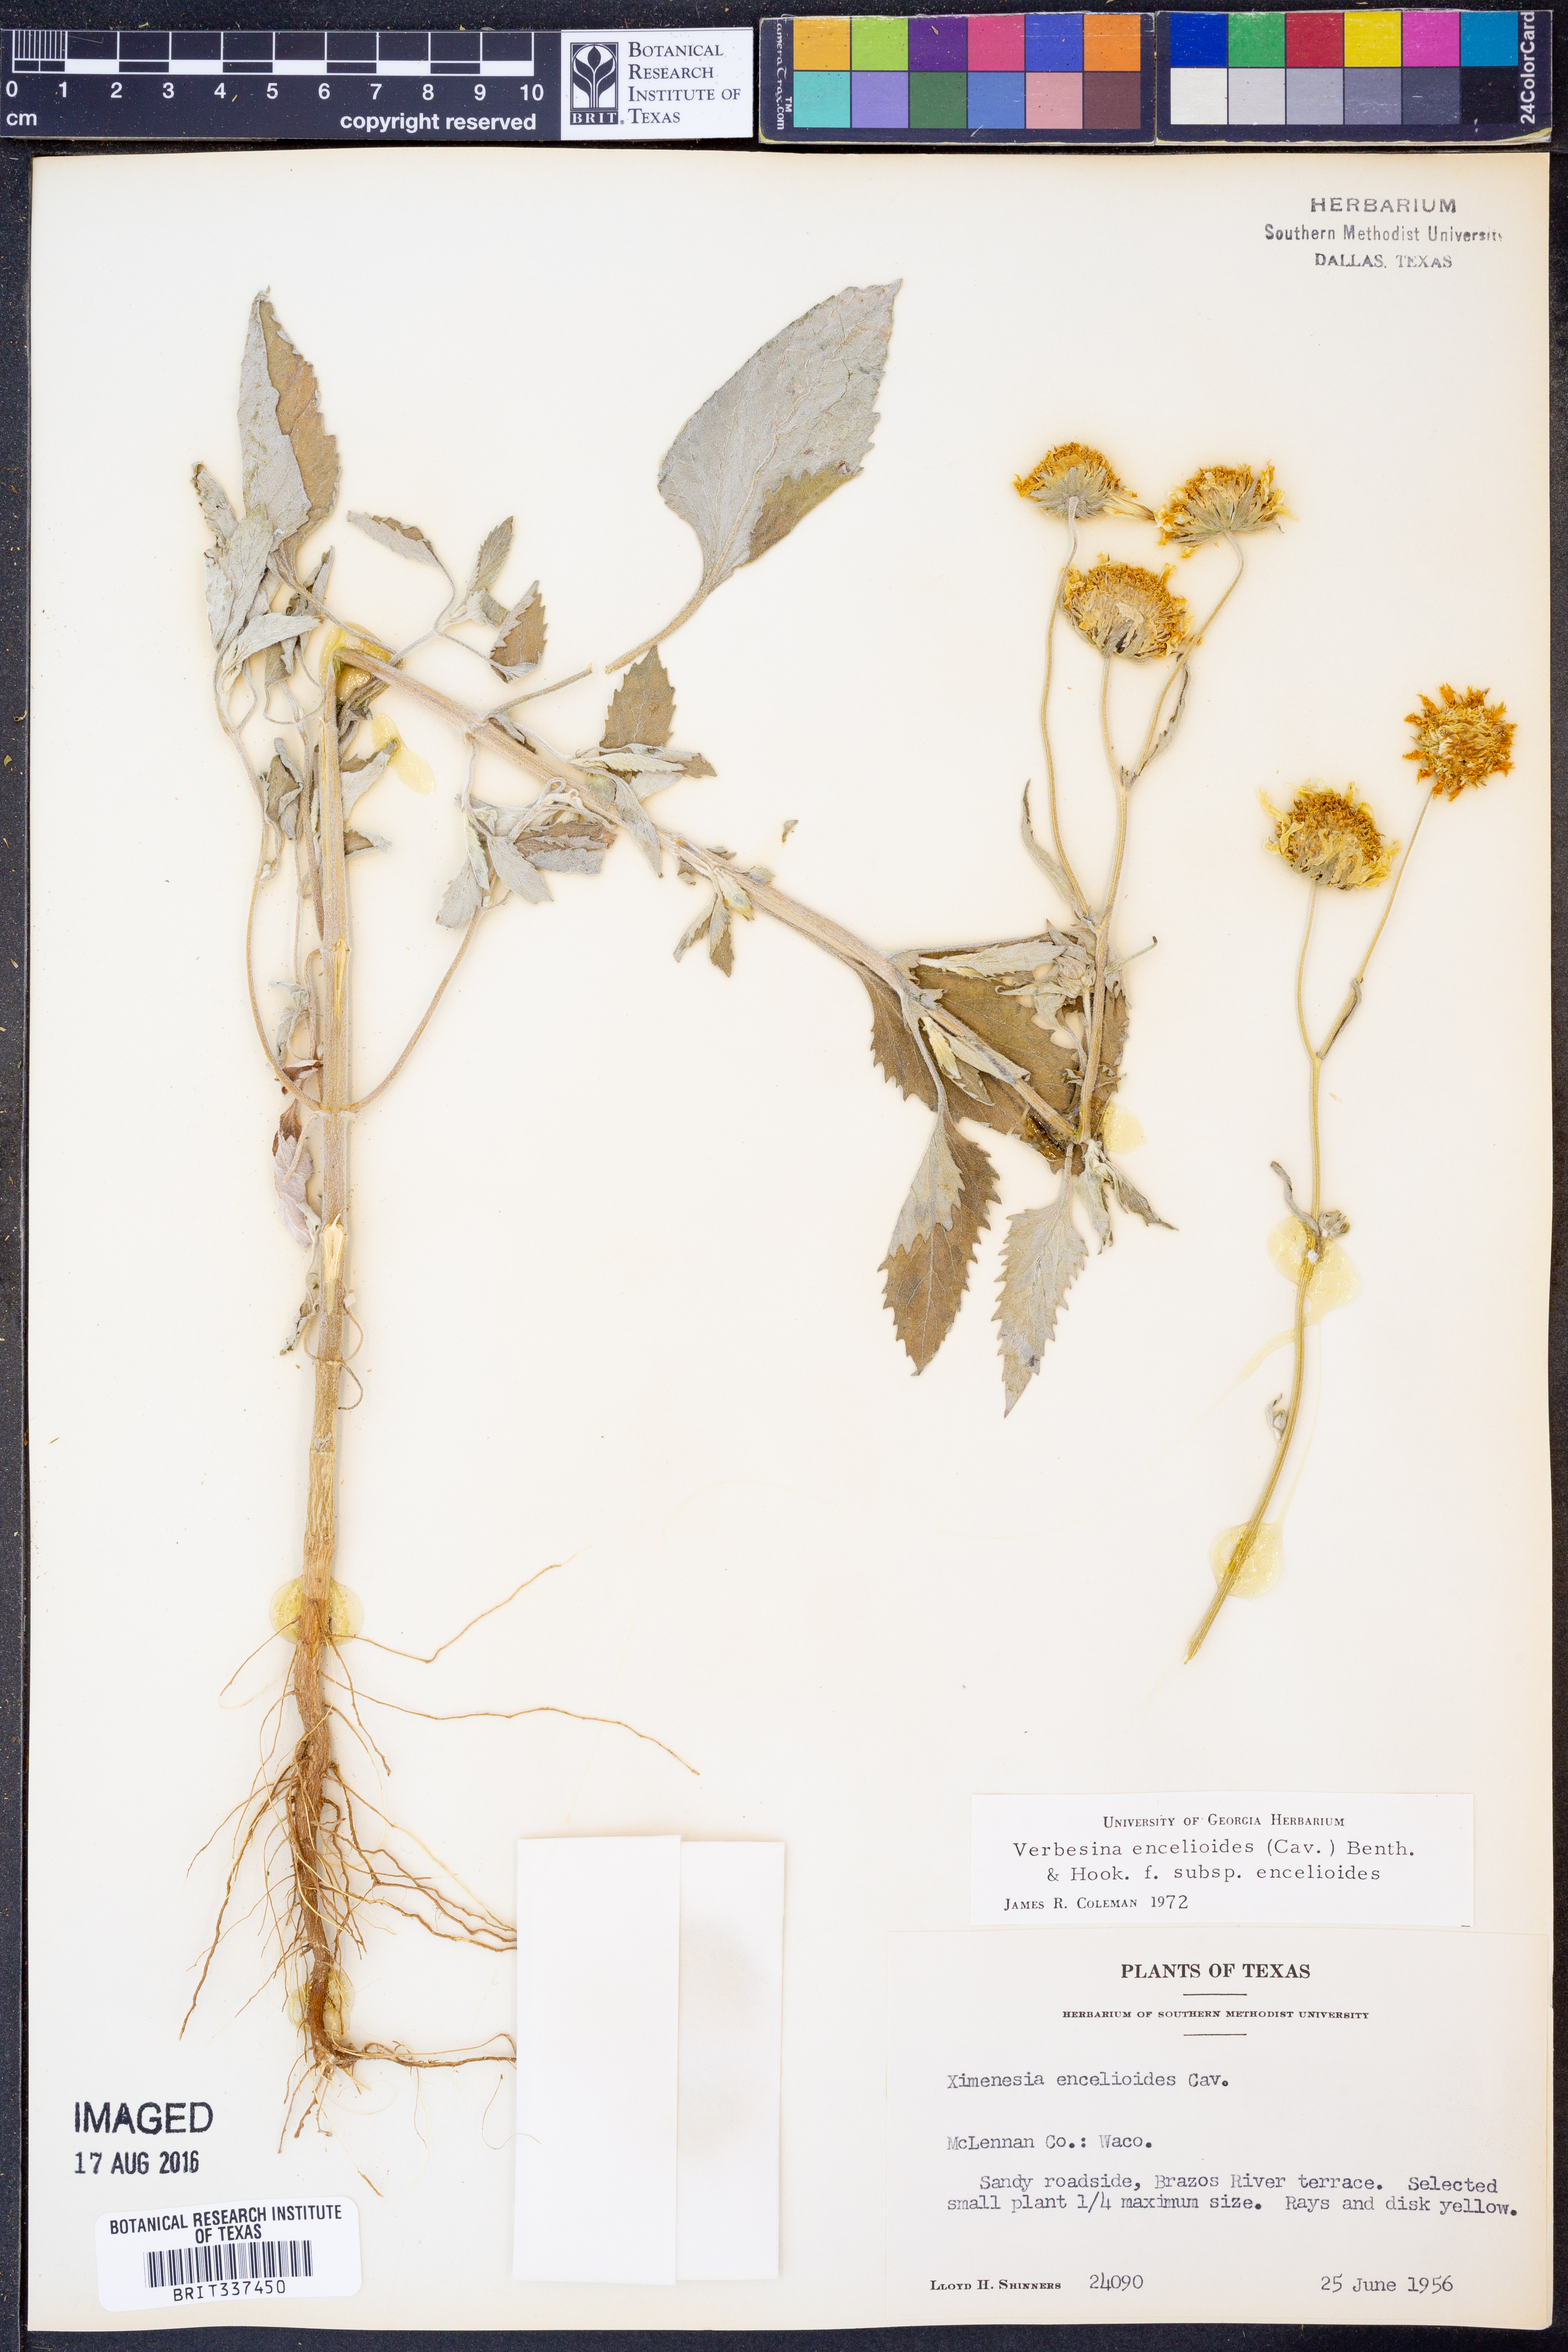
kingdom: Plantae
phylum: Tracheophyta
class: Magnoliopsida
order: Asterales
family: Asteraceae
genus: Verbesina
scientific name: Verbesina encelioides
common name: Golden crownbeard
